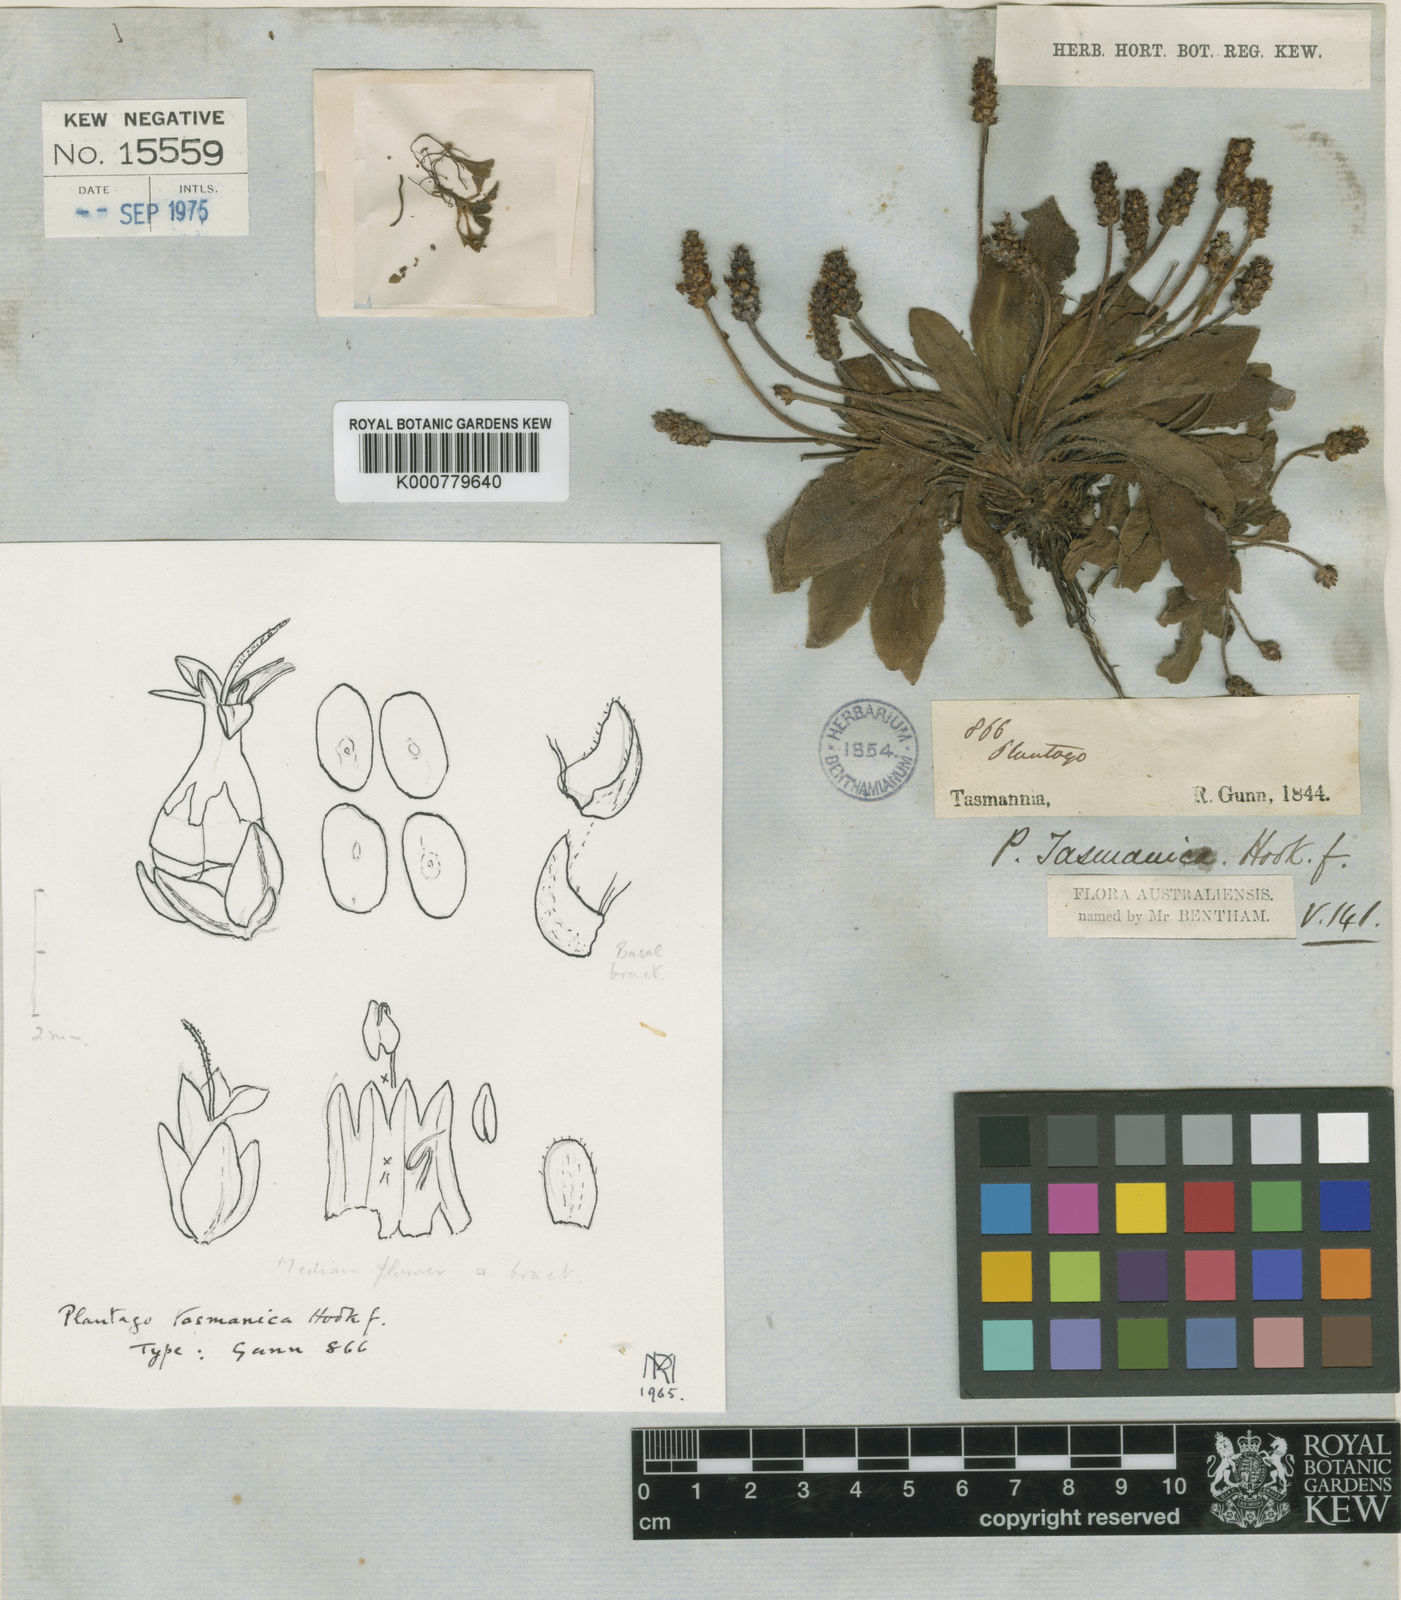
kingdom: Plantae
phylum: Tracheophyta
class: Magnoliopsida
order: Lamiales
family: Plantaginaceae
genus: Plantago
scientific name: Plantago glabrata
